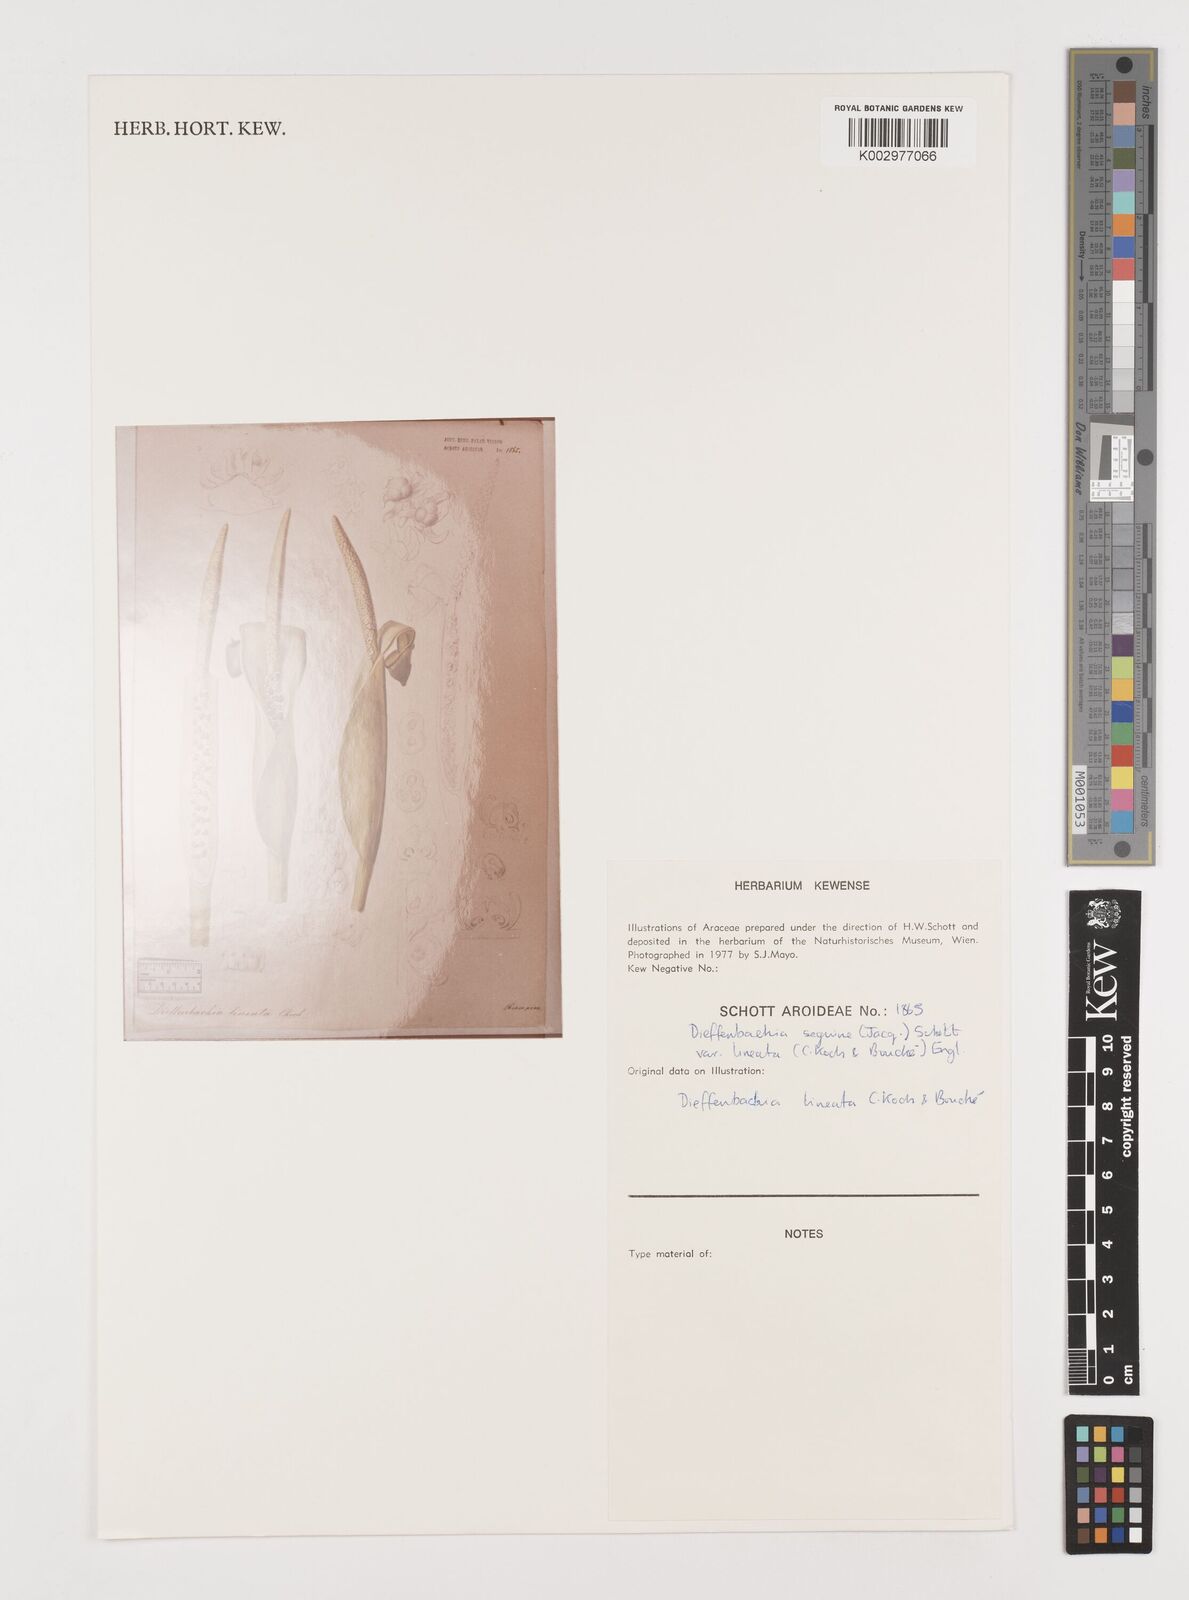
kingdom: Plantae
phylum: Tracheophyta
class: Liliopsida
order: Alismatales
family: Araceae
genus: Dieffenbachia
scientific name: Dieffenbachia seguine
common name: Dumbcane
